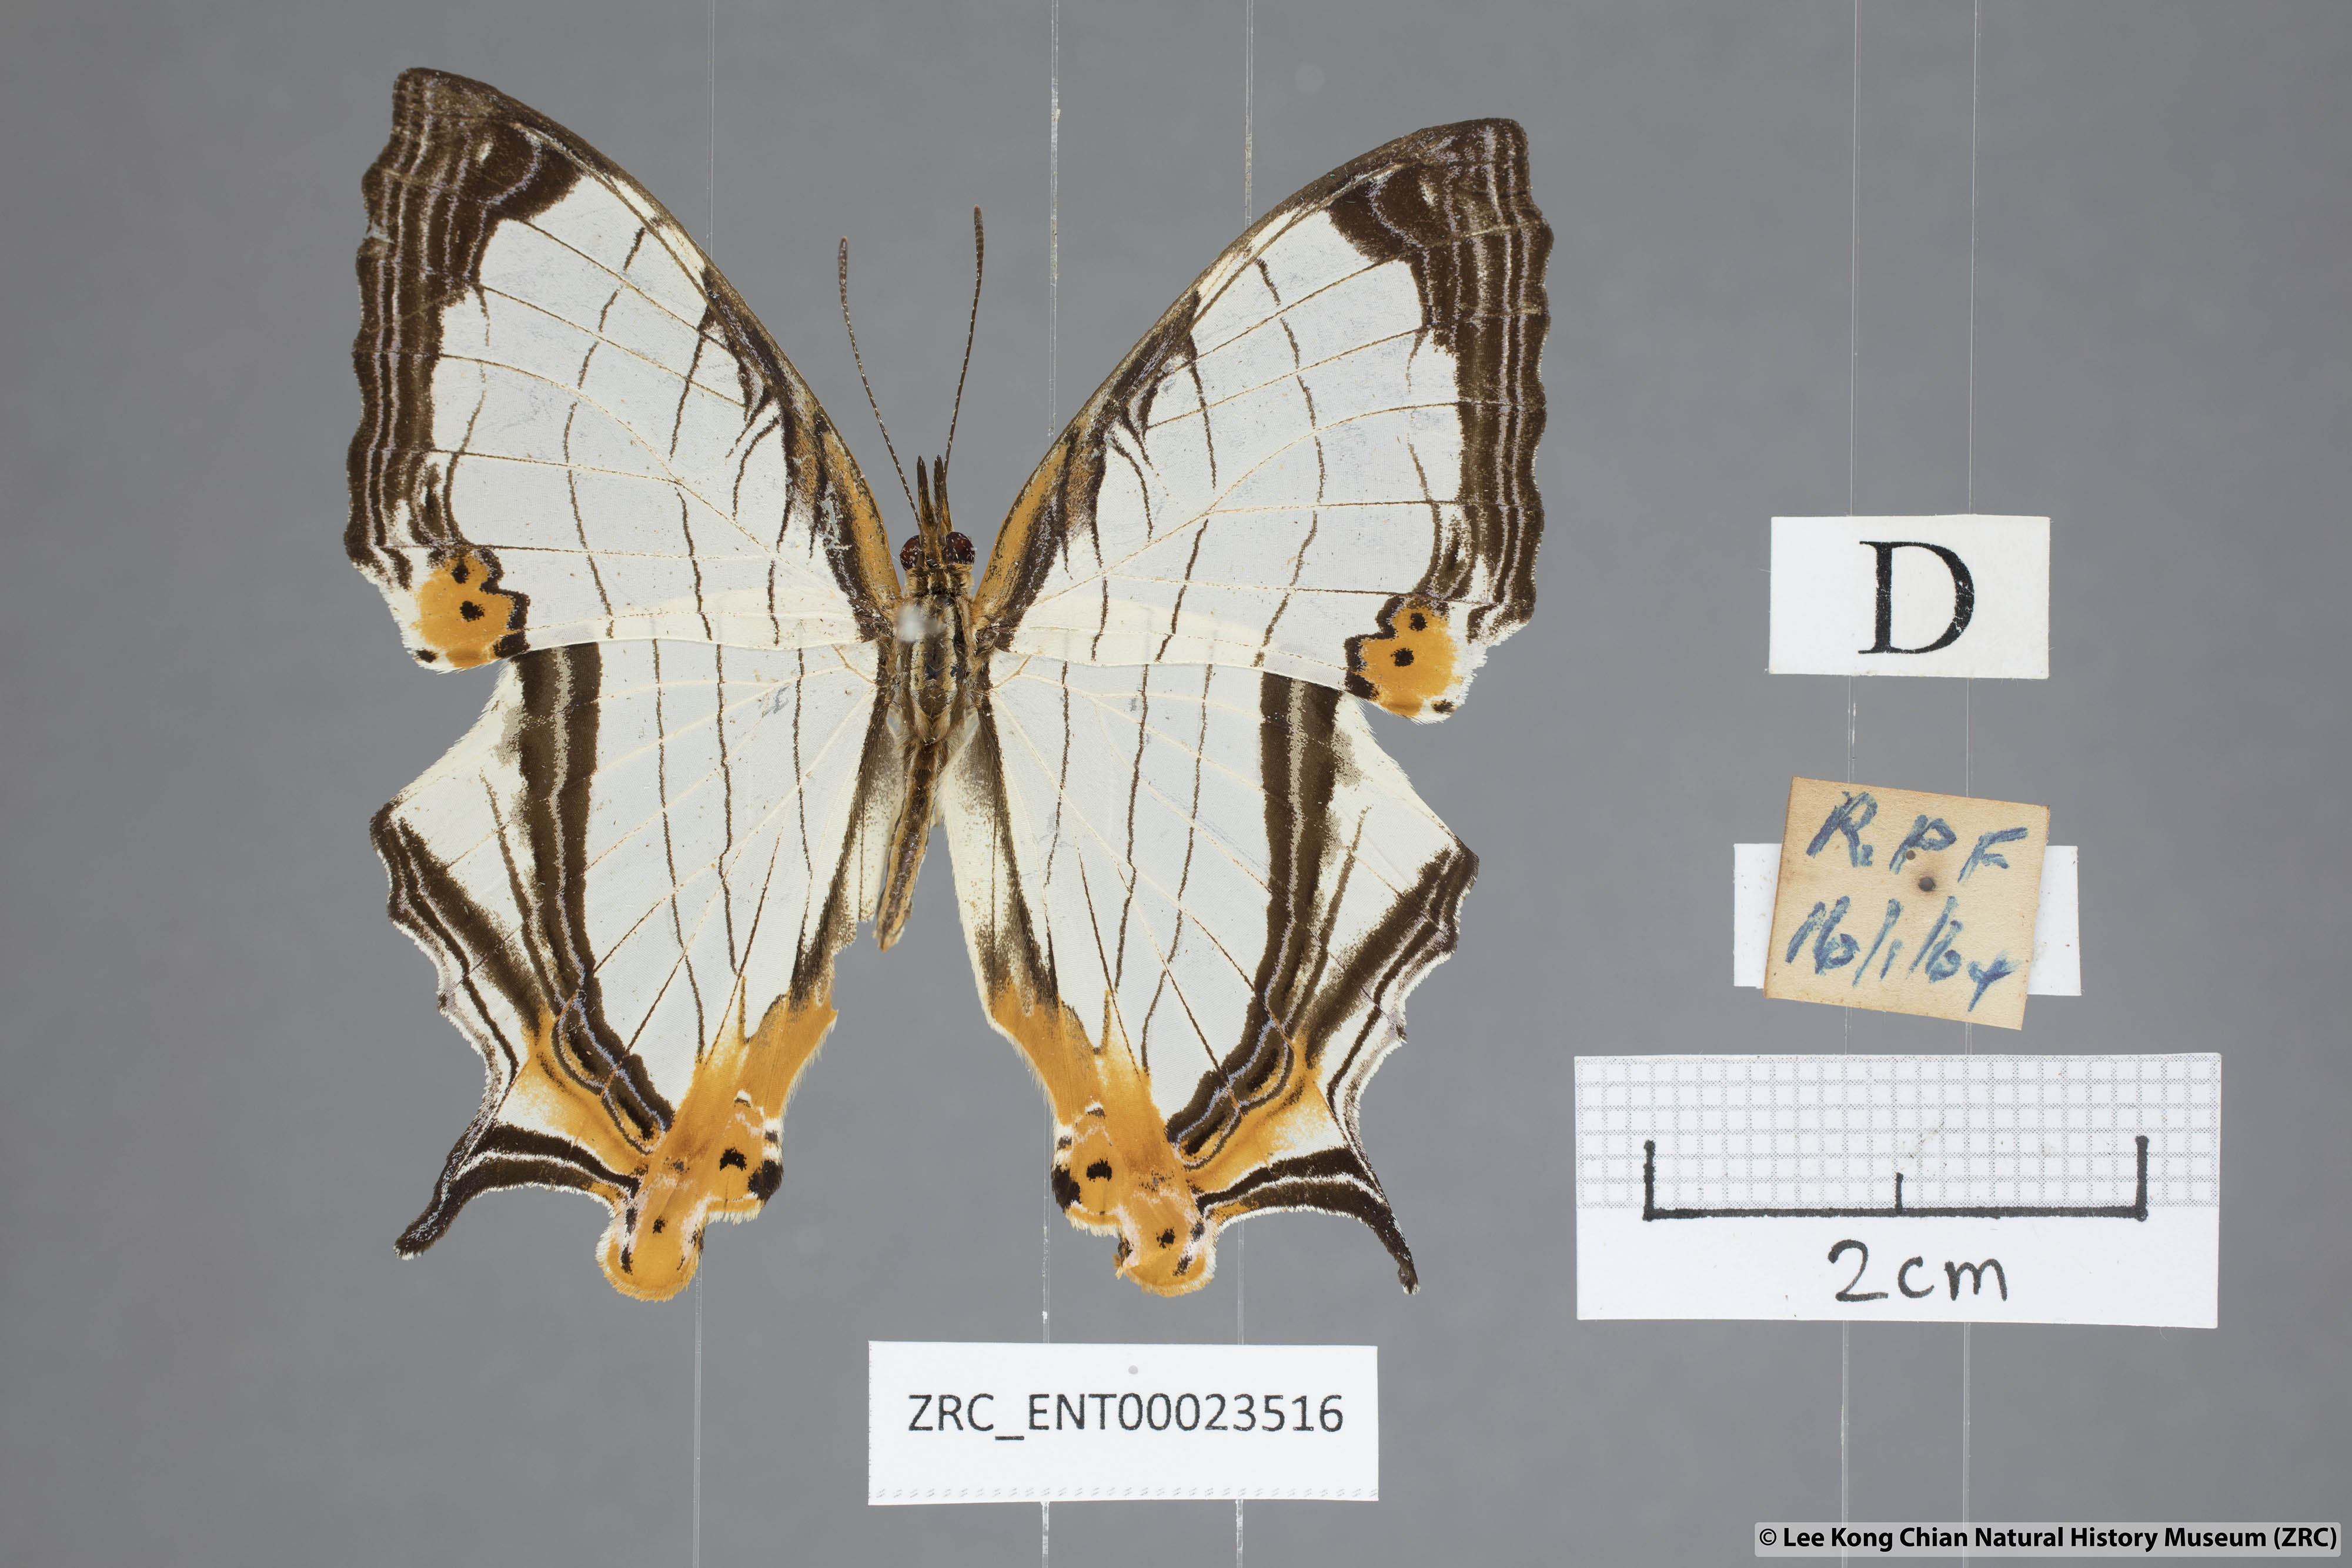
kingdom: Animalia
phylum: Arthropoda
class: Insecta
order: Lepidoptera
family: Nymphalidae
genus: Cyrestis
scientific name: Cyrestis nivea
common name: Straight line mapwing
